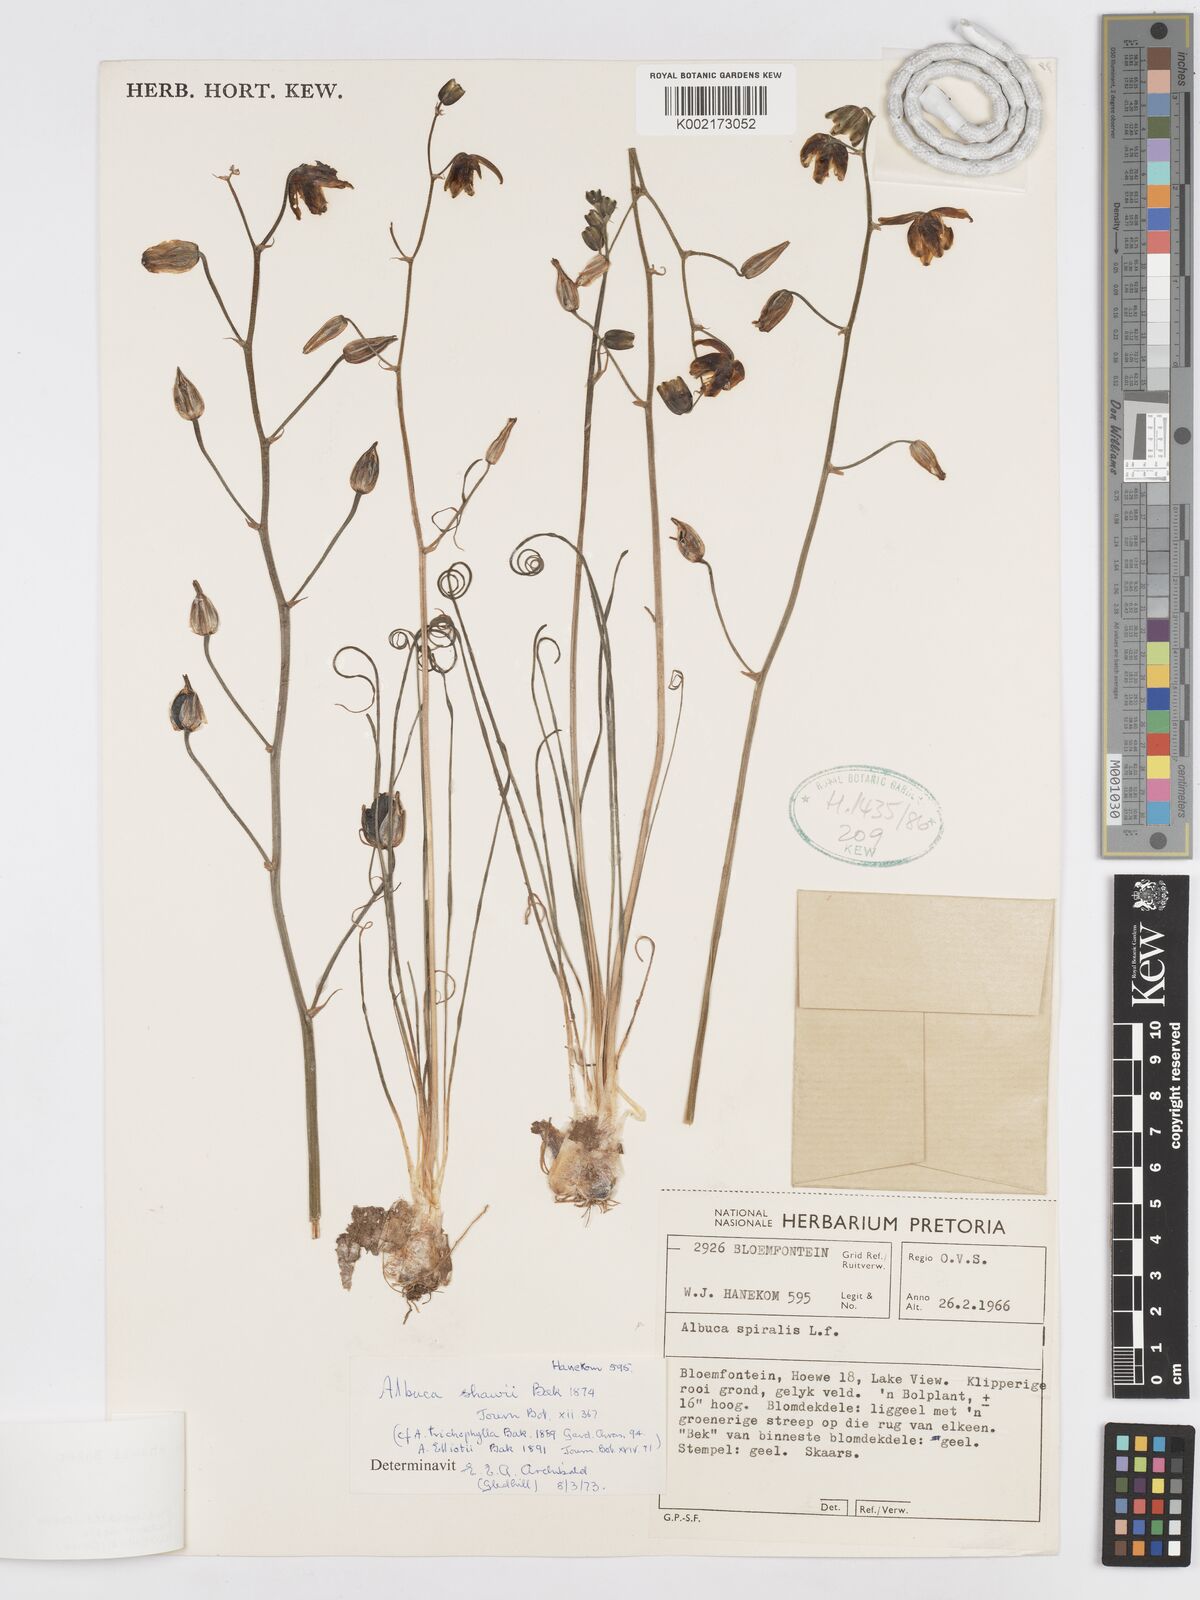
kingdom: Plantae
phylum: Tracheophyta
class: Liliopsida
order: Asparagales
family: Asparagaceae
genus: Albuca
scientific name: Albuca shawii
